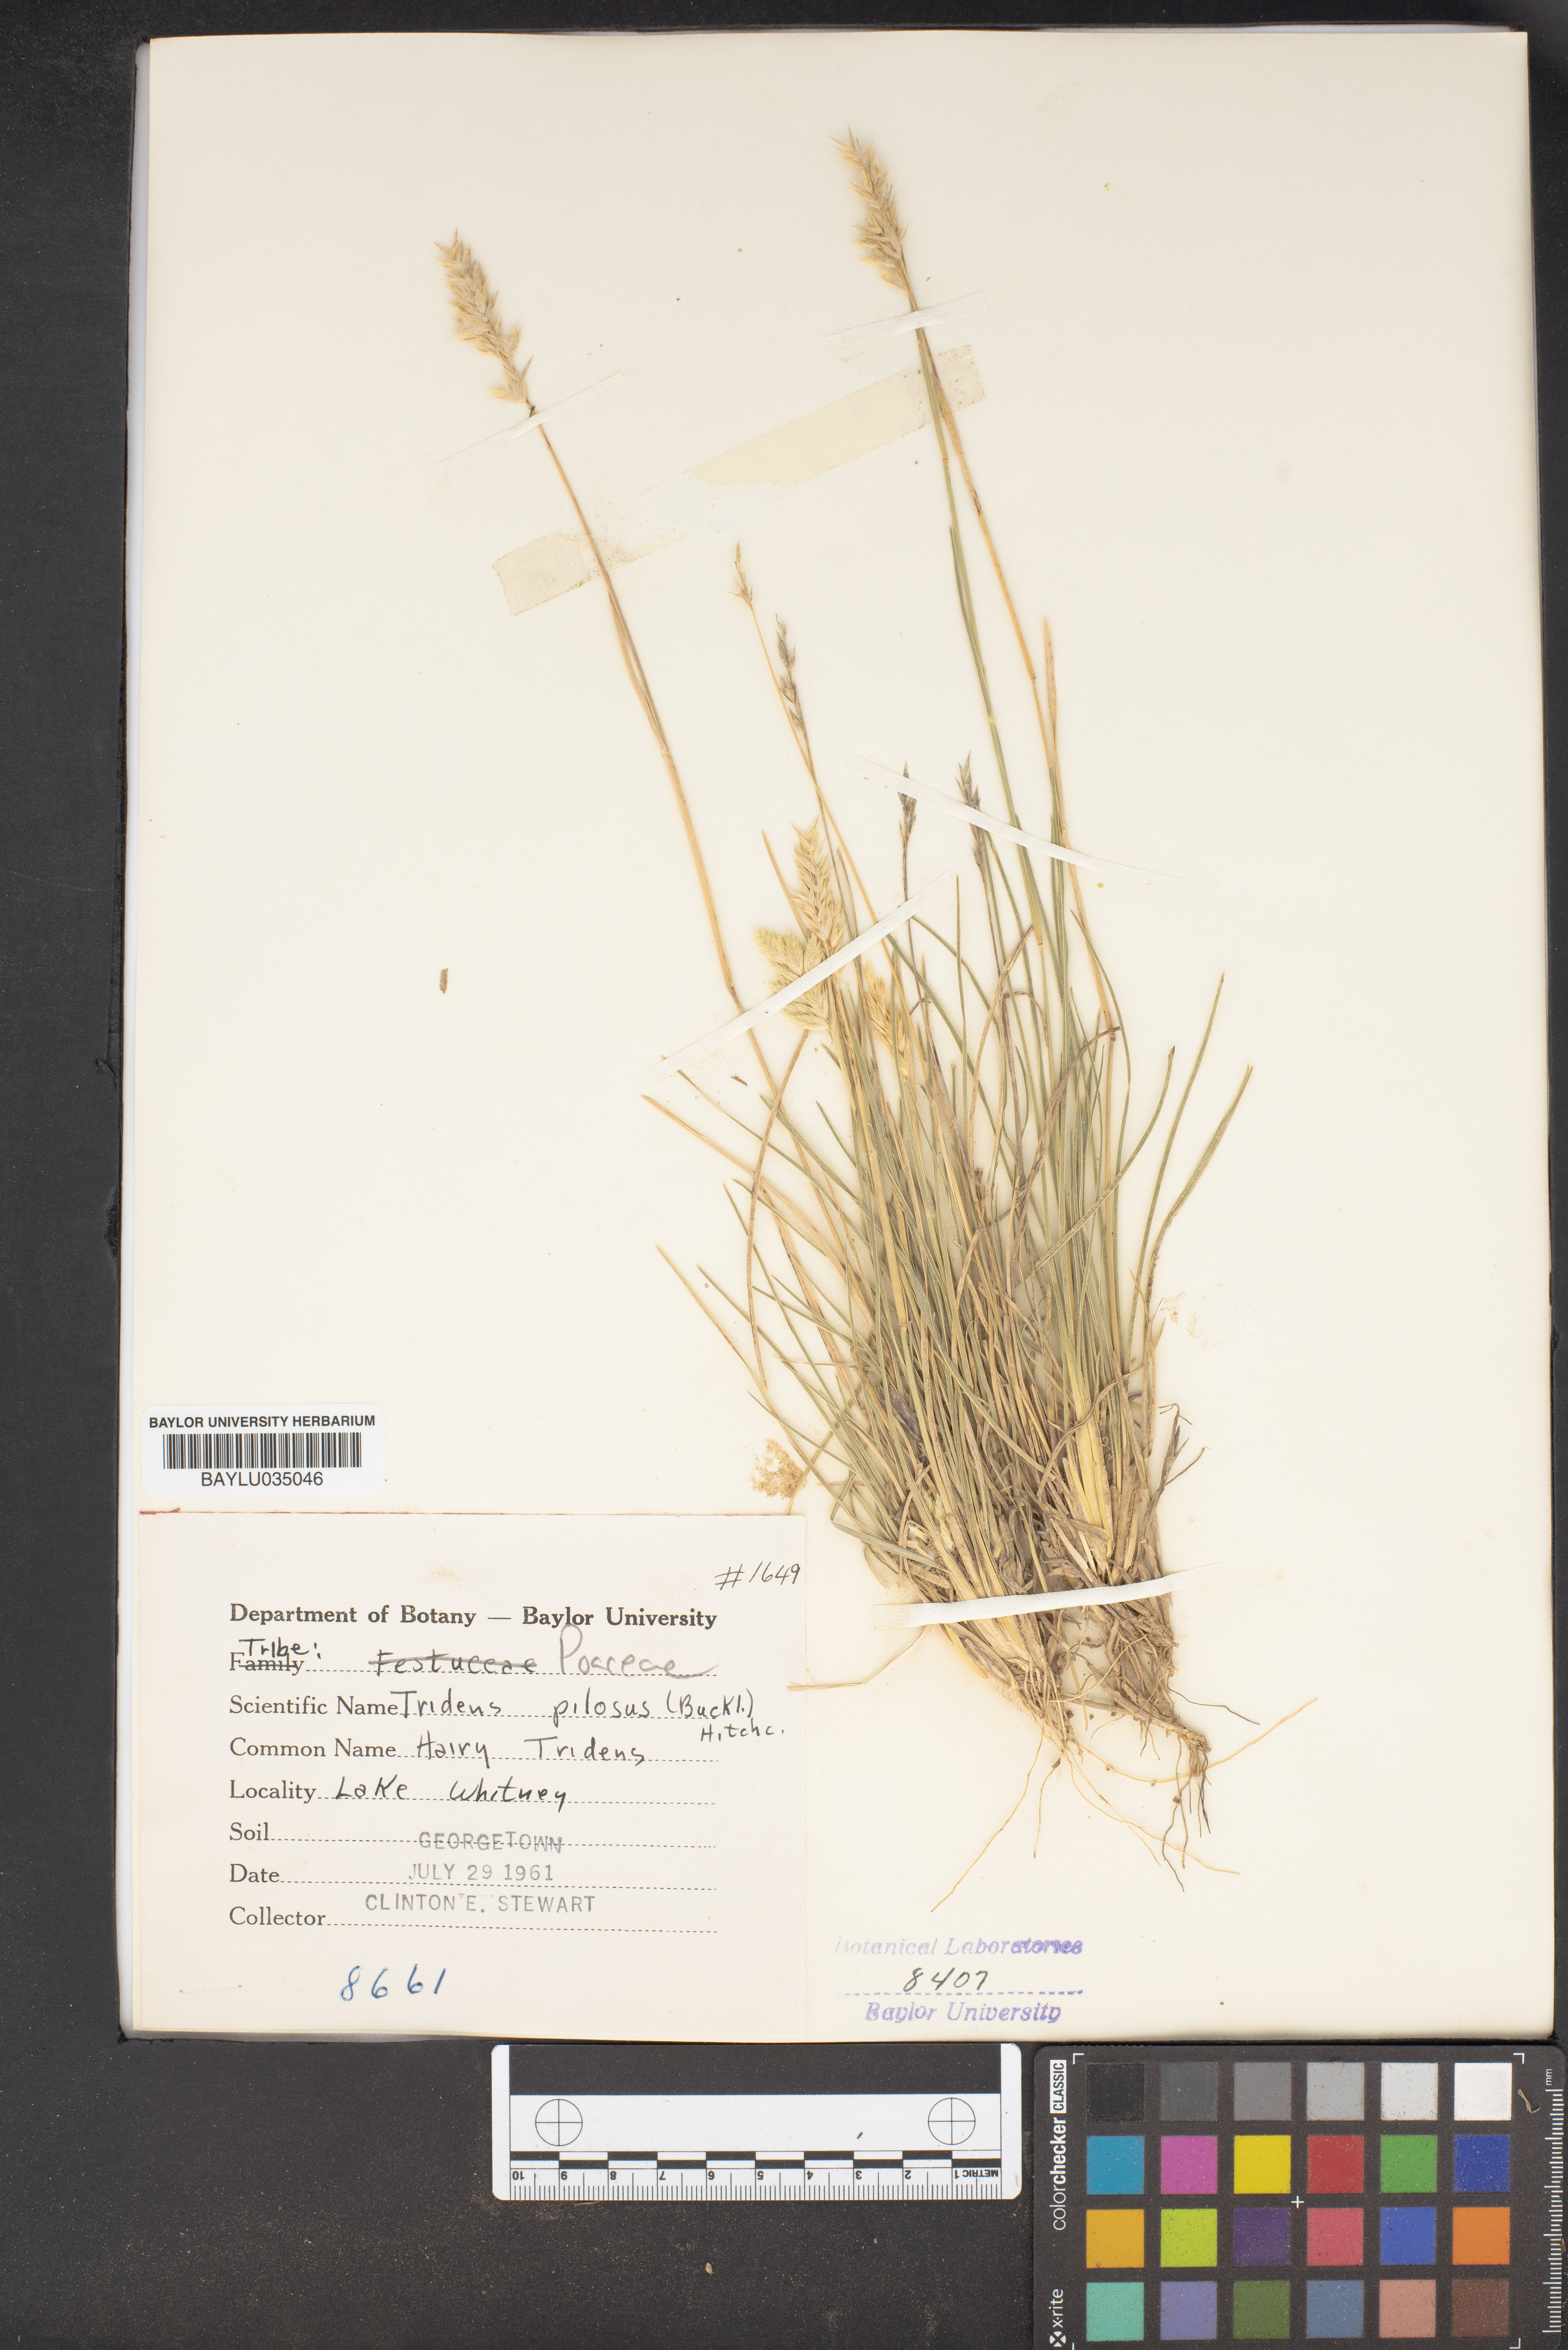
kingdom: Plantae
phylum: Tracheophyta
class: Liliopsida
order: Poales
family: Poaceae
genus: Tridentopsis
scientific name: Tridentopsis mutica
